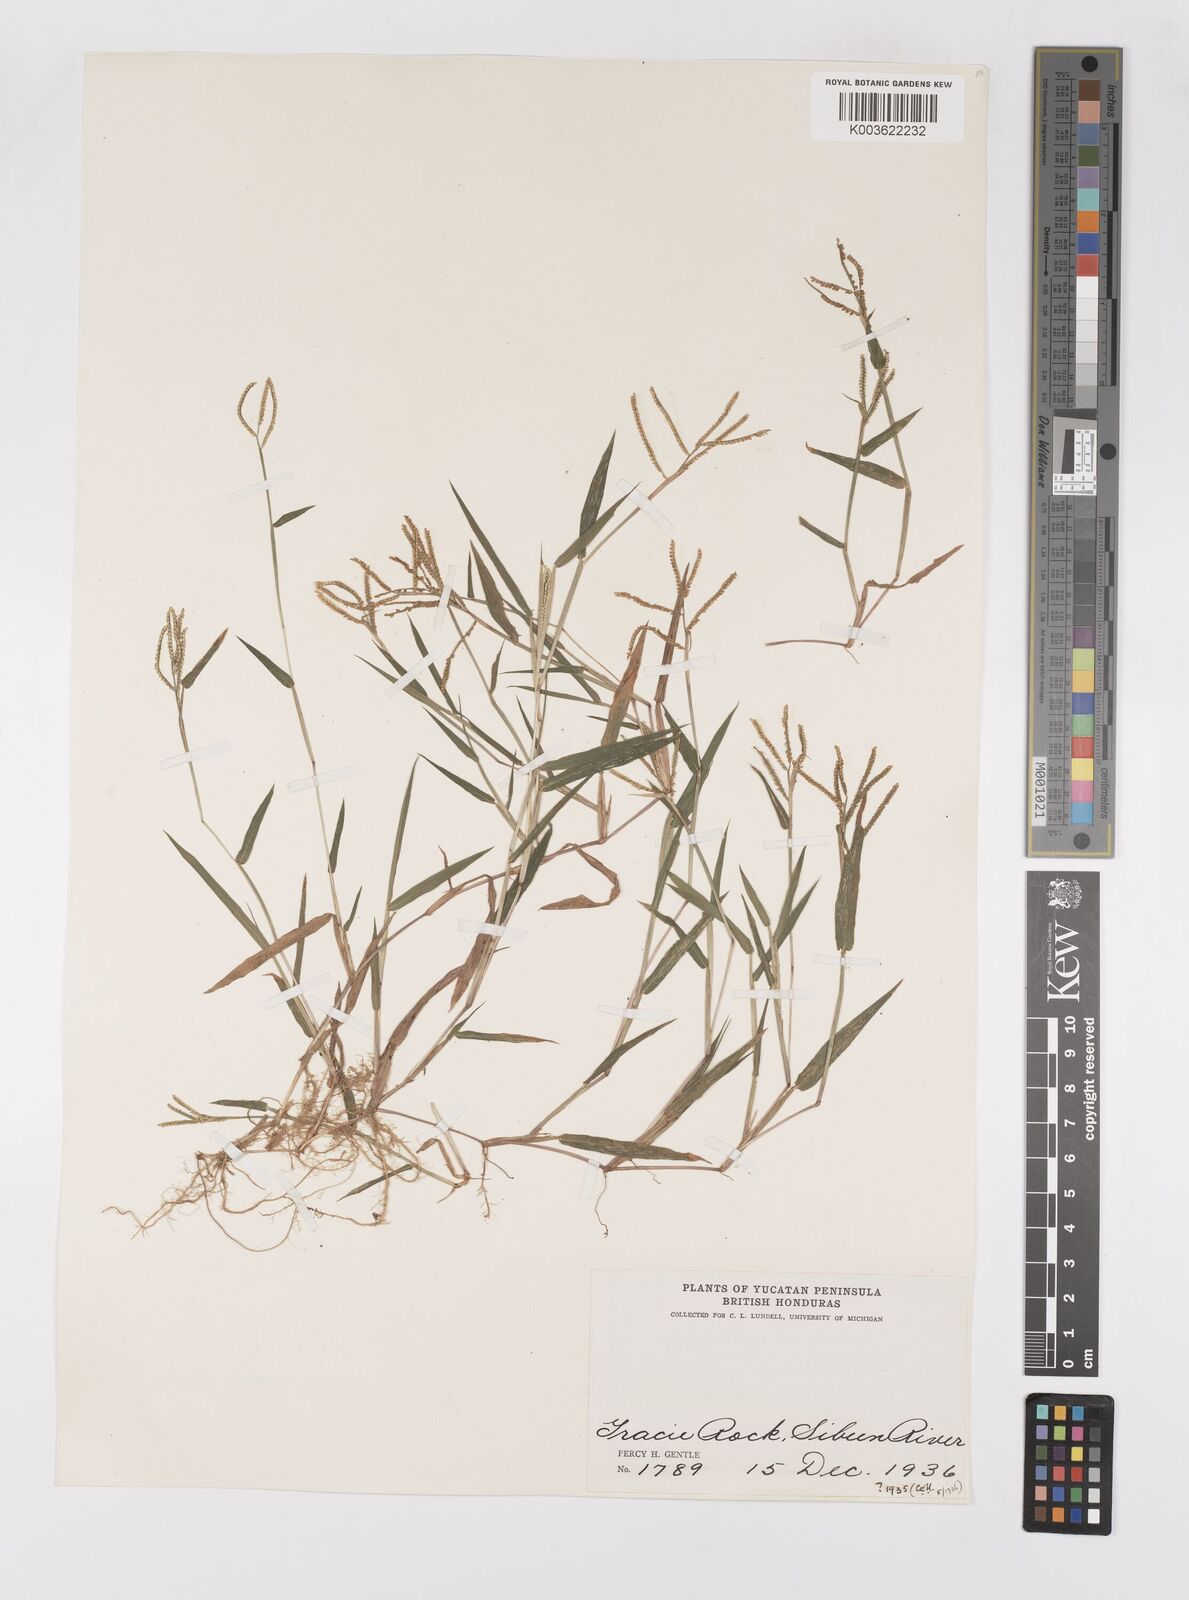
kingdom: Plantae
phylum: Tracheophyta
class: Liliopsida
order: Poales
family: Poaceae
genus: Paspalum
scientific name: Paspalum
